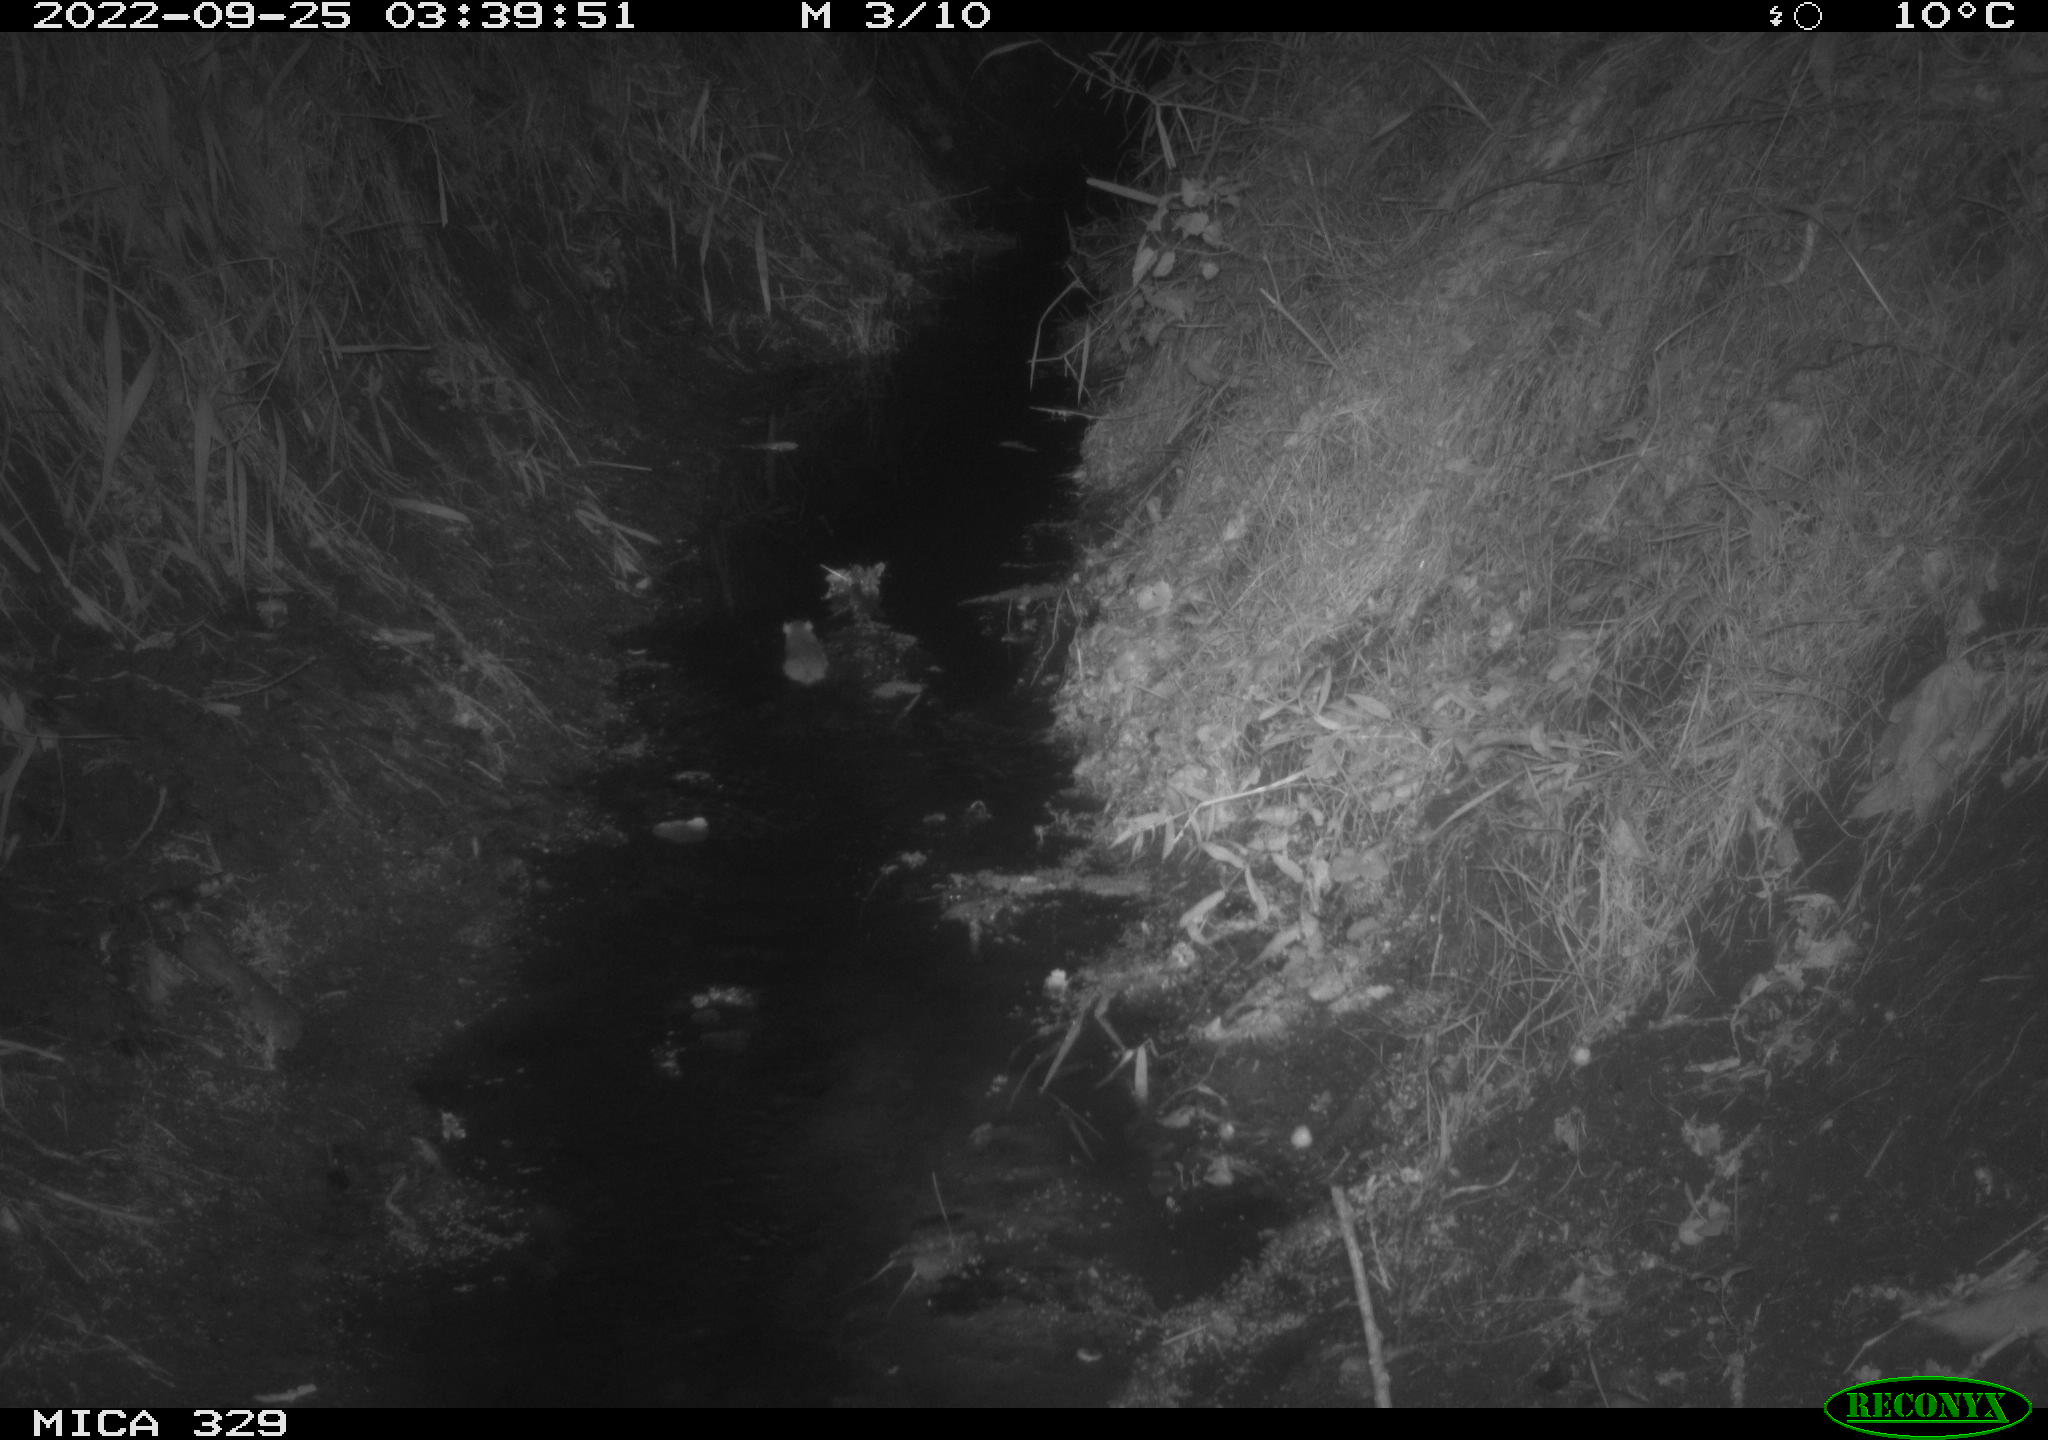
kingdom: Animalia
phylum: Chordata
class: Mammalia
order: Rodentia
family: Muridae
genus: Rattus
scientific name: Rattus norvegicus
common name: Brown rat
